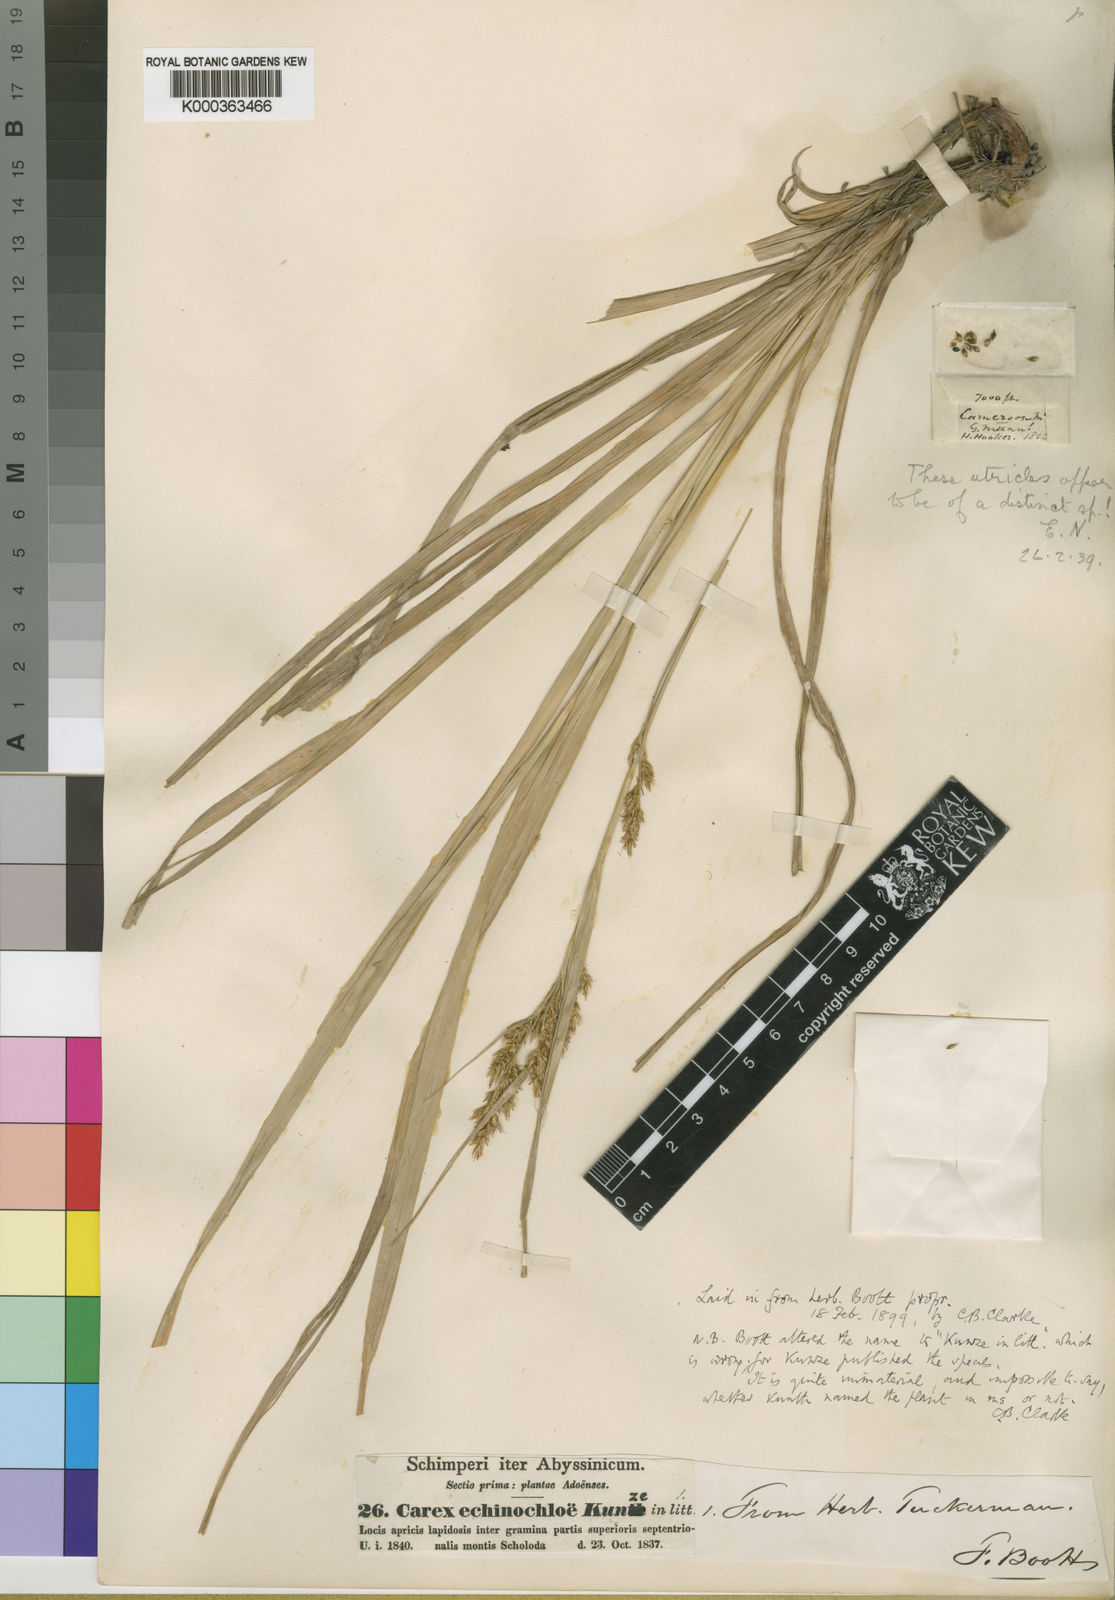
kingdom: Plantae
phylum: Tracheophyta
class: Liliopsida
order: Poales
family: Cyperaceae
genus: Carex
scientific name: Carex echinochloe
